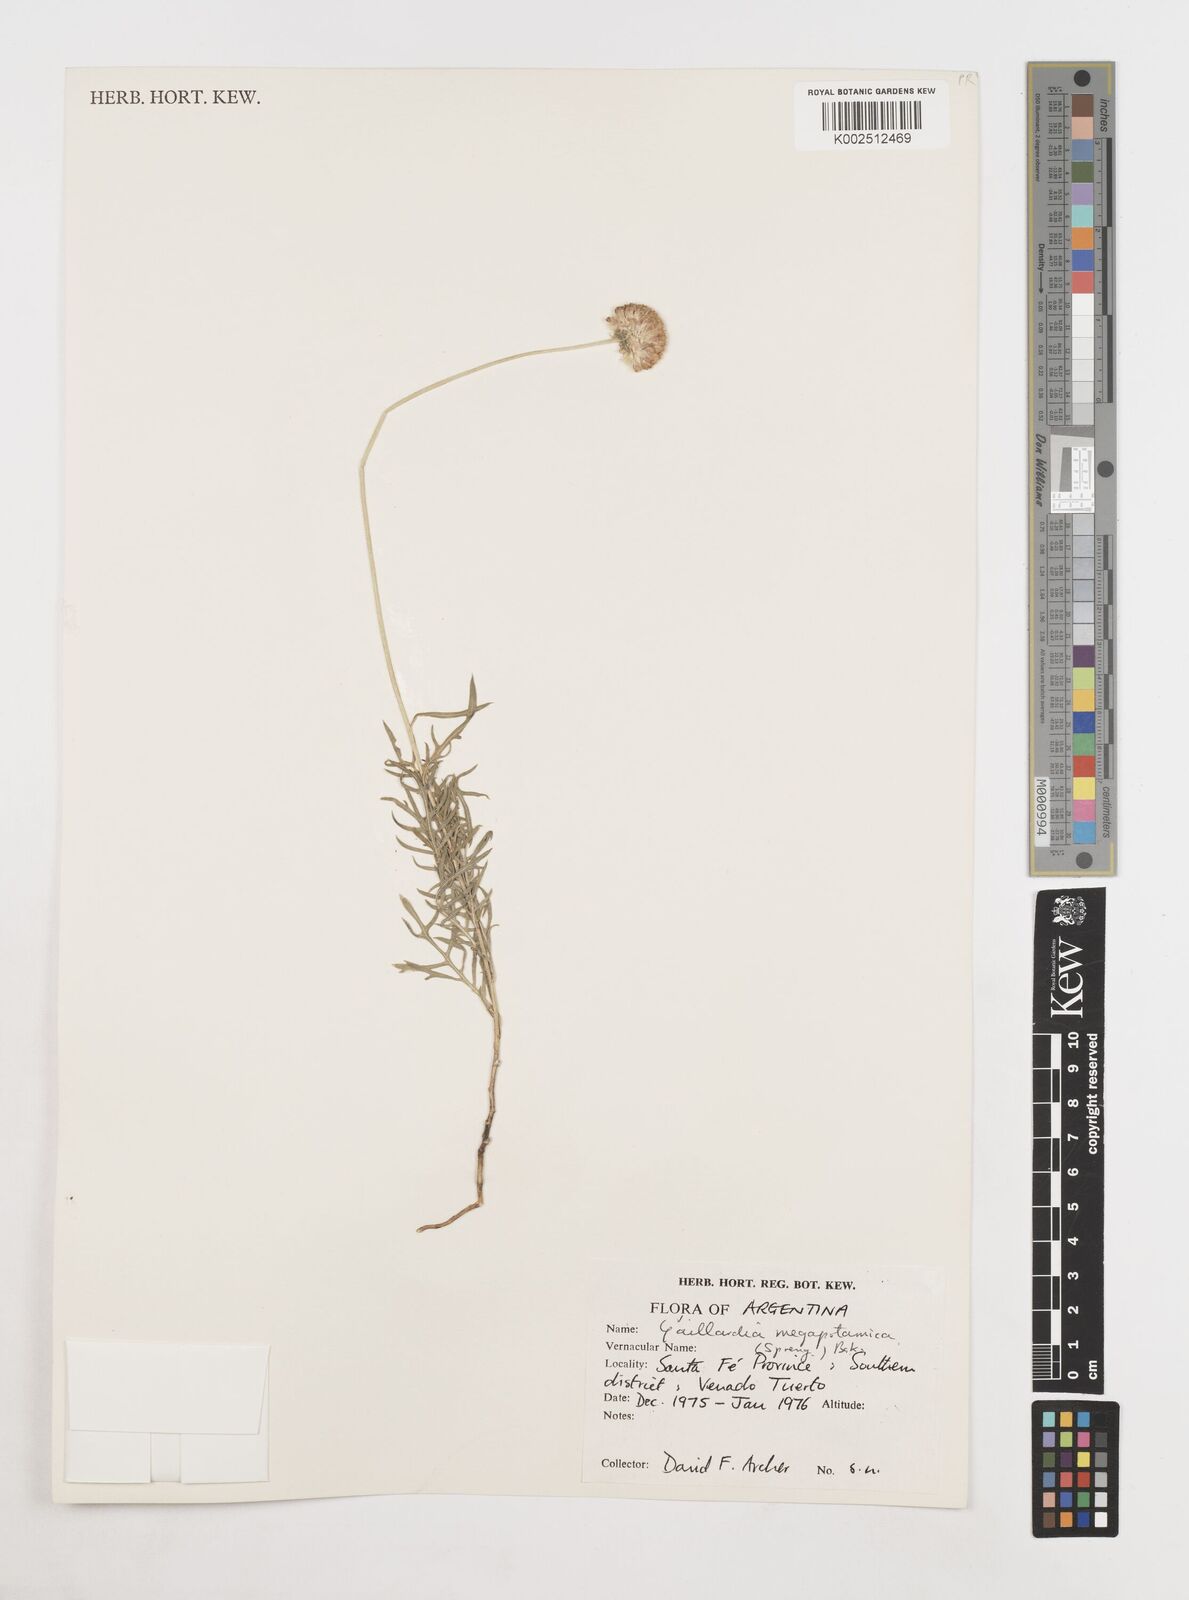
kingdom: Plantae
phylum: Tracheophyta
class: Magnoliopsida
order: Asterales
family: Asteraceae
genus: Gaillardia
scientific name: Gaillardia megapotamica
